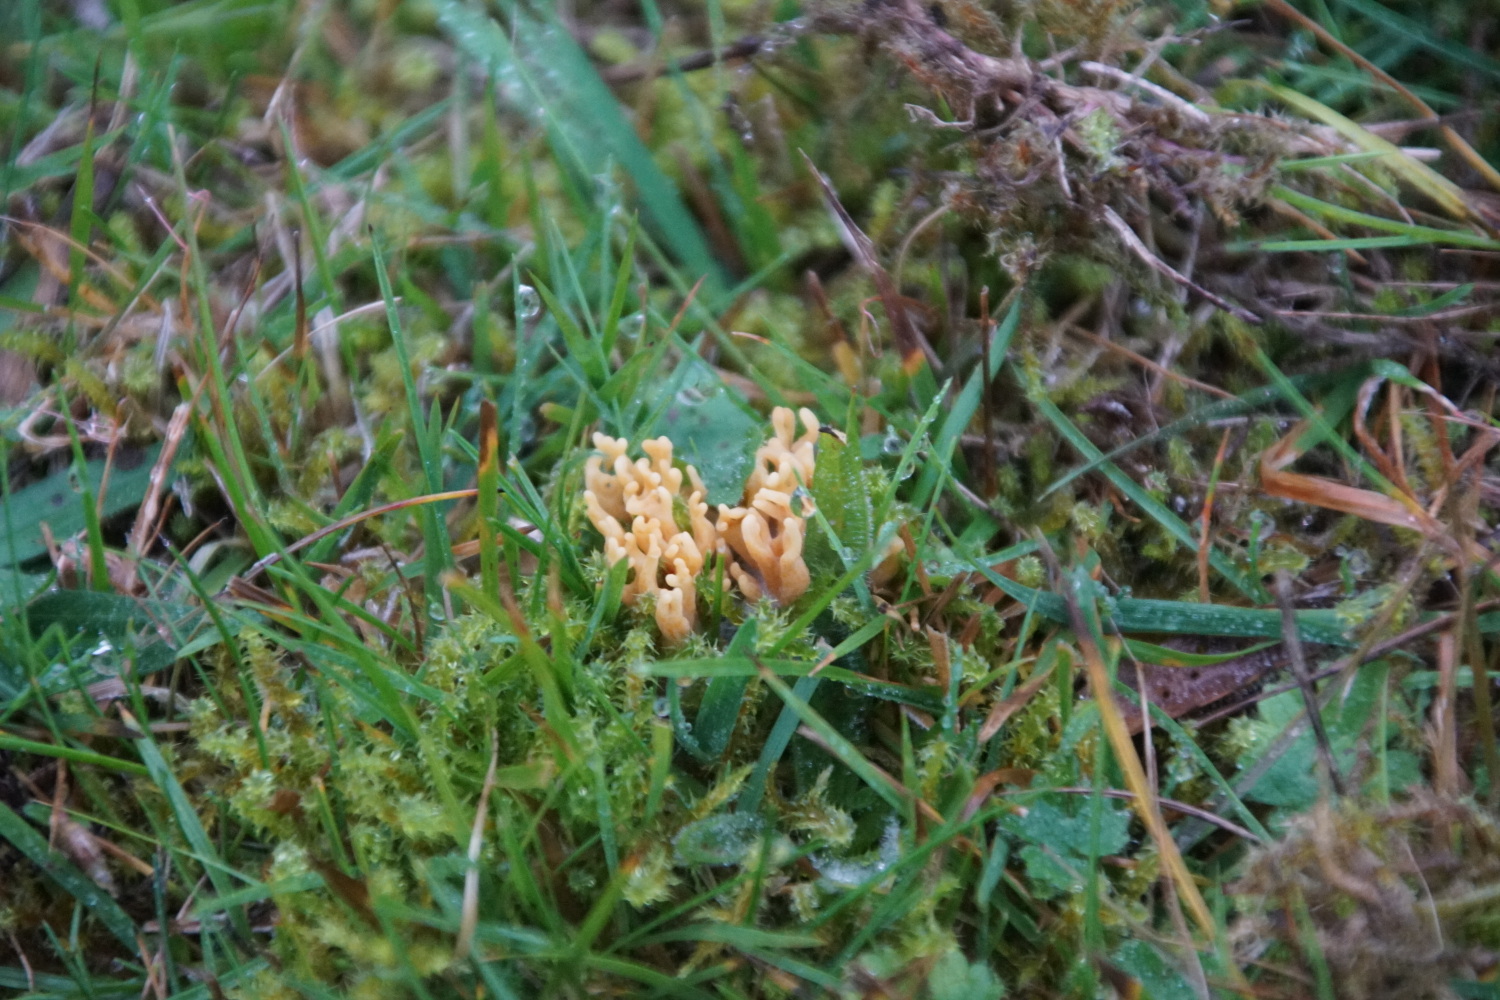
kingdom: Fungi
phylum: Basidiomycota
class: Agaricomycetes
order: Agaricales
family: Clavariaceae
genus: Clavulinopsis
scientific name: Clavulinopsis corniculata
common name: eng-køllesvamp
